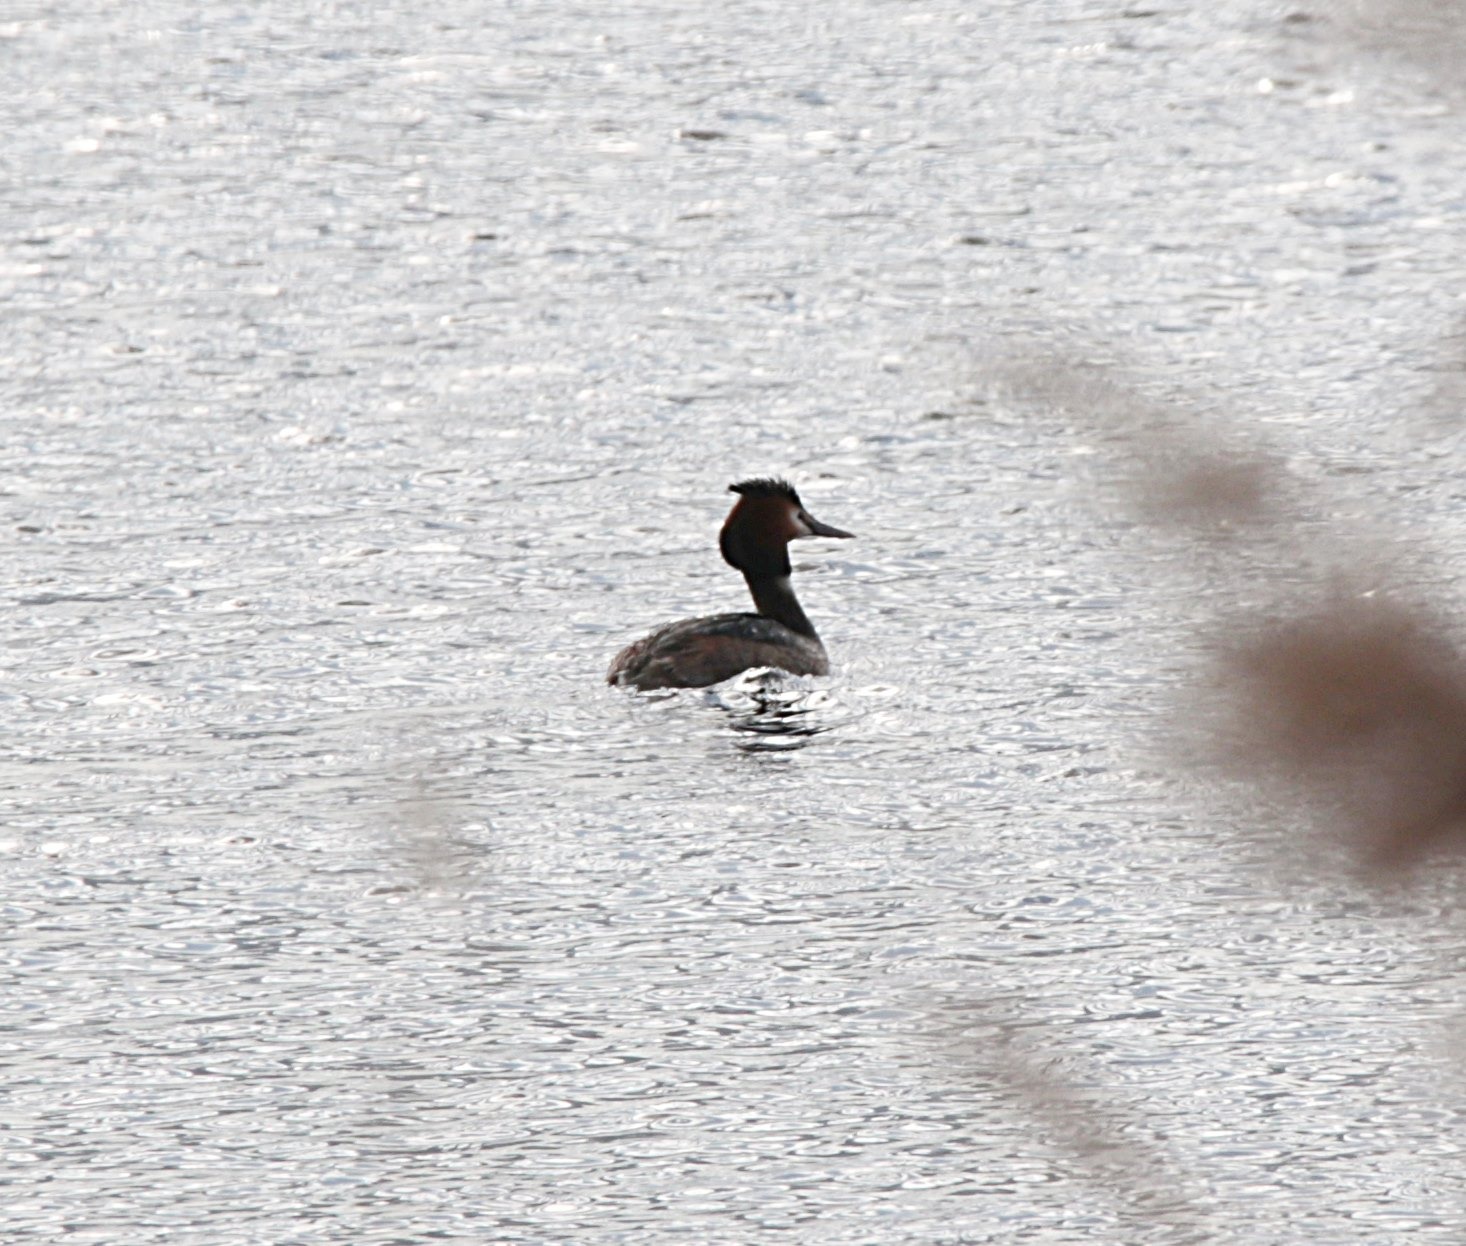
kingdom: Animalia
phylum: Chordata
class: Aves
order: Podicipediformes
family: Podicipedidae
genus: Podiceps
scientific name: Podiceps cristatus
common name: Toppet lappedykker
